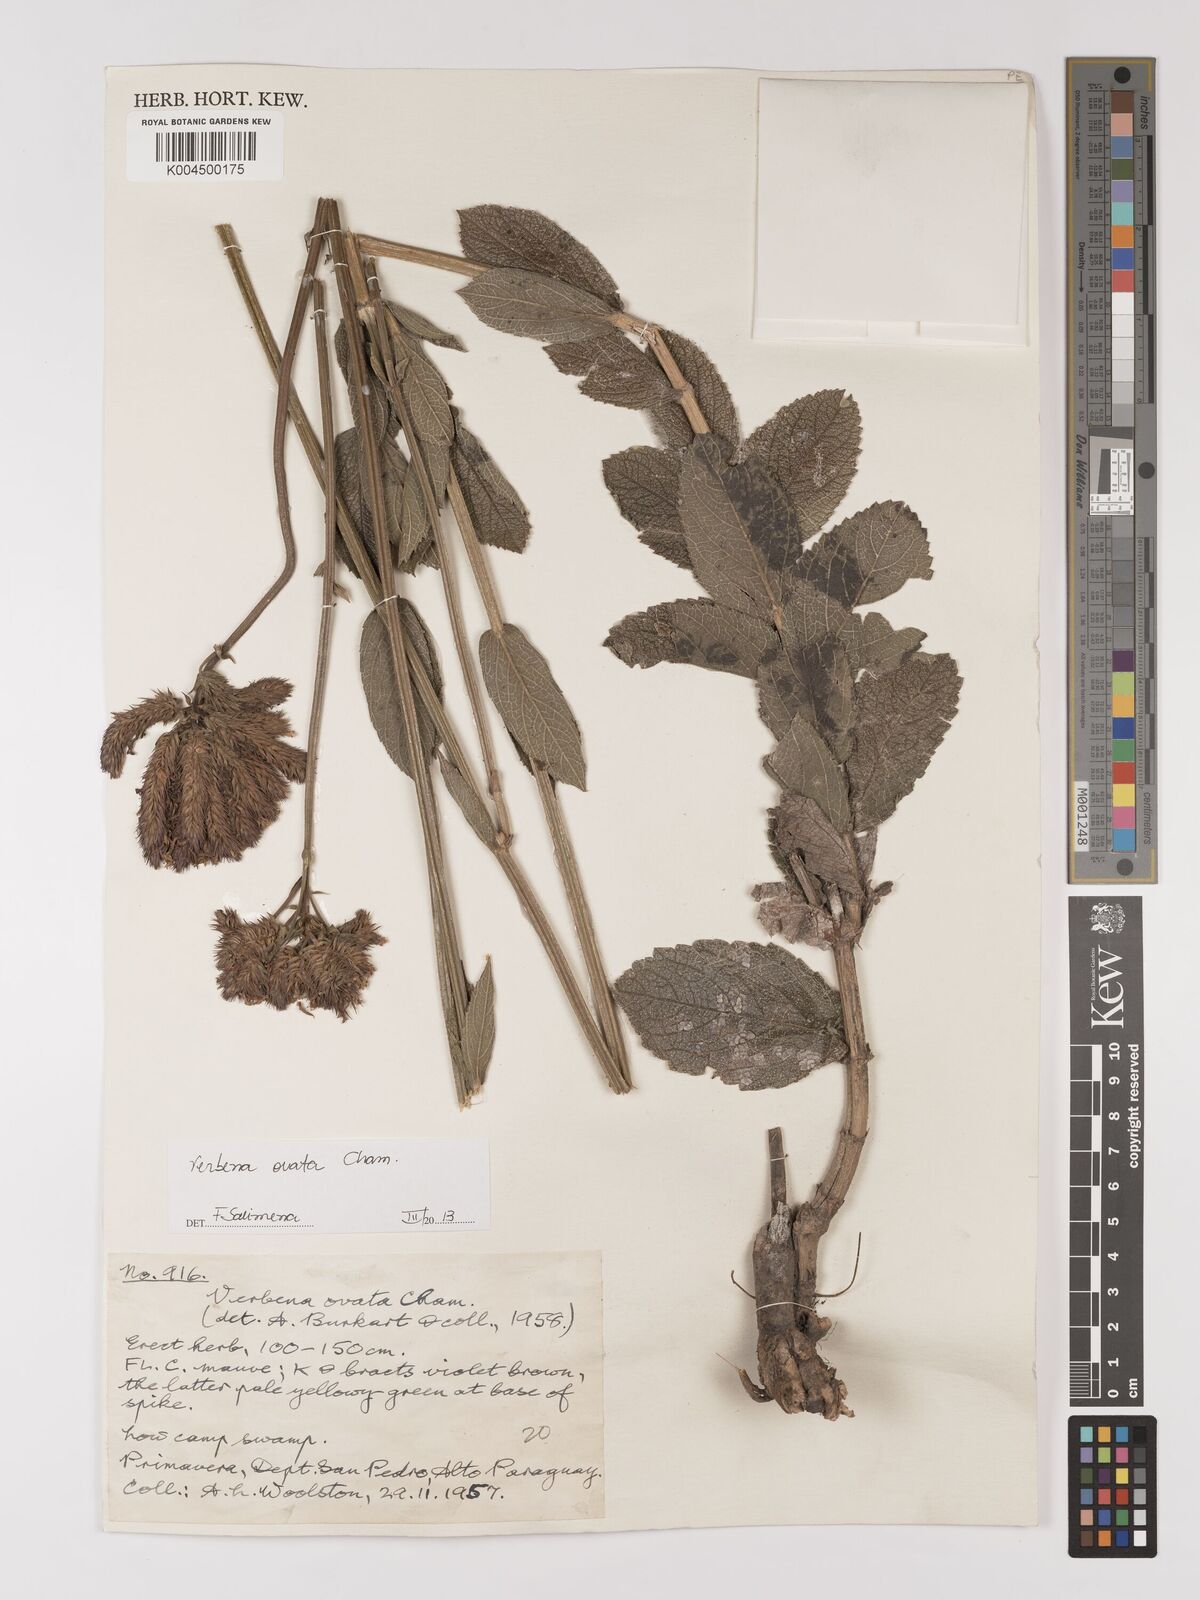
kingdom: Plantae
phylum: Tracheophyta
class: Magnoliopsida
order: Lamiales
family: Verbenaceae
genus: Verbena
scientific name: Verbena ovata
